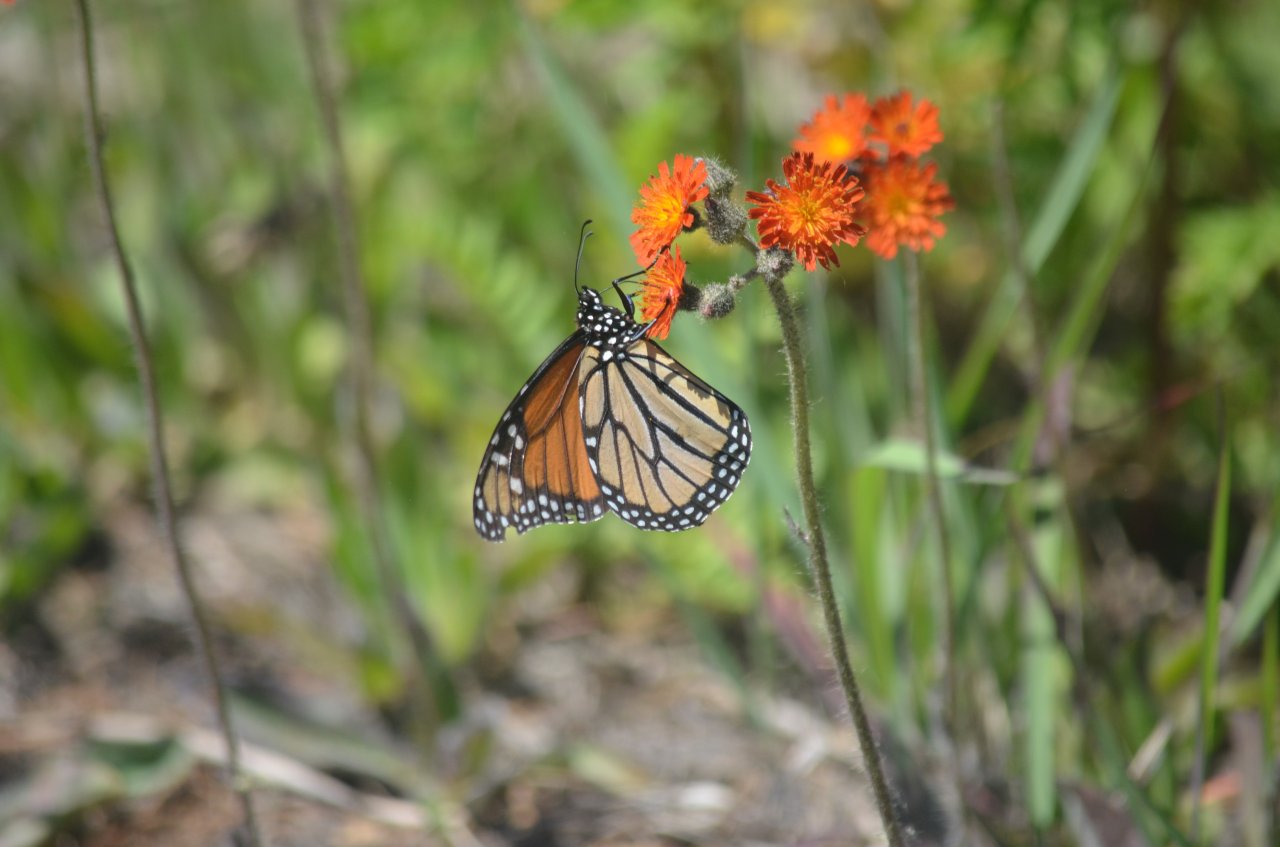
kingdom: Animalia
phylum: Arthropoda
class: Insecta
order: Lepidoptera
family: Nymphalidae
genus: Danaus
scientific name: Danaus plexippus
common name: Monarch
